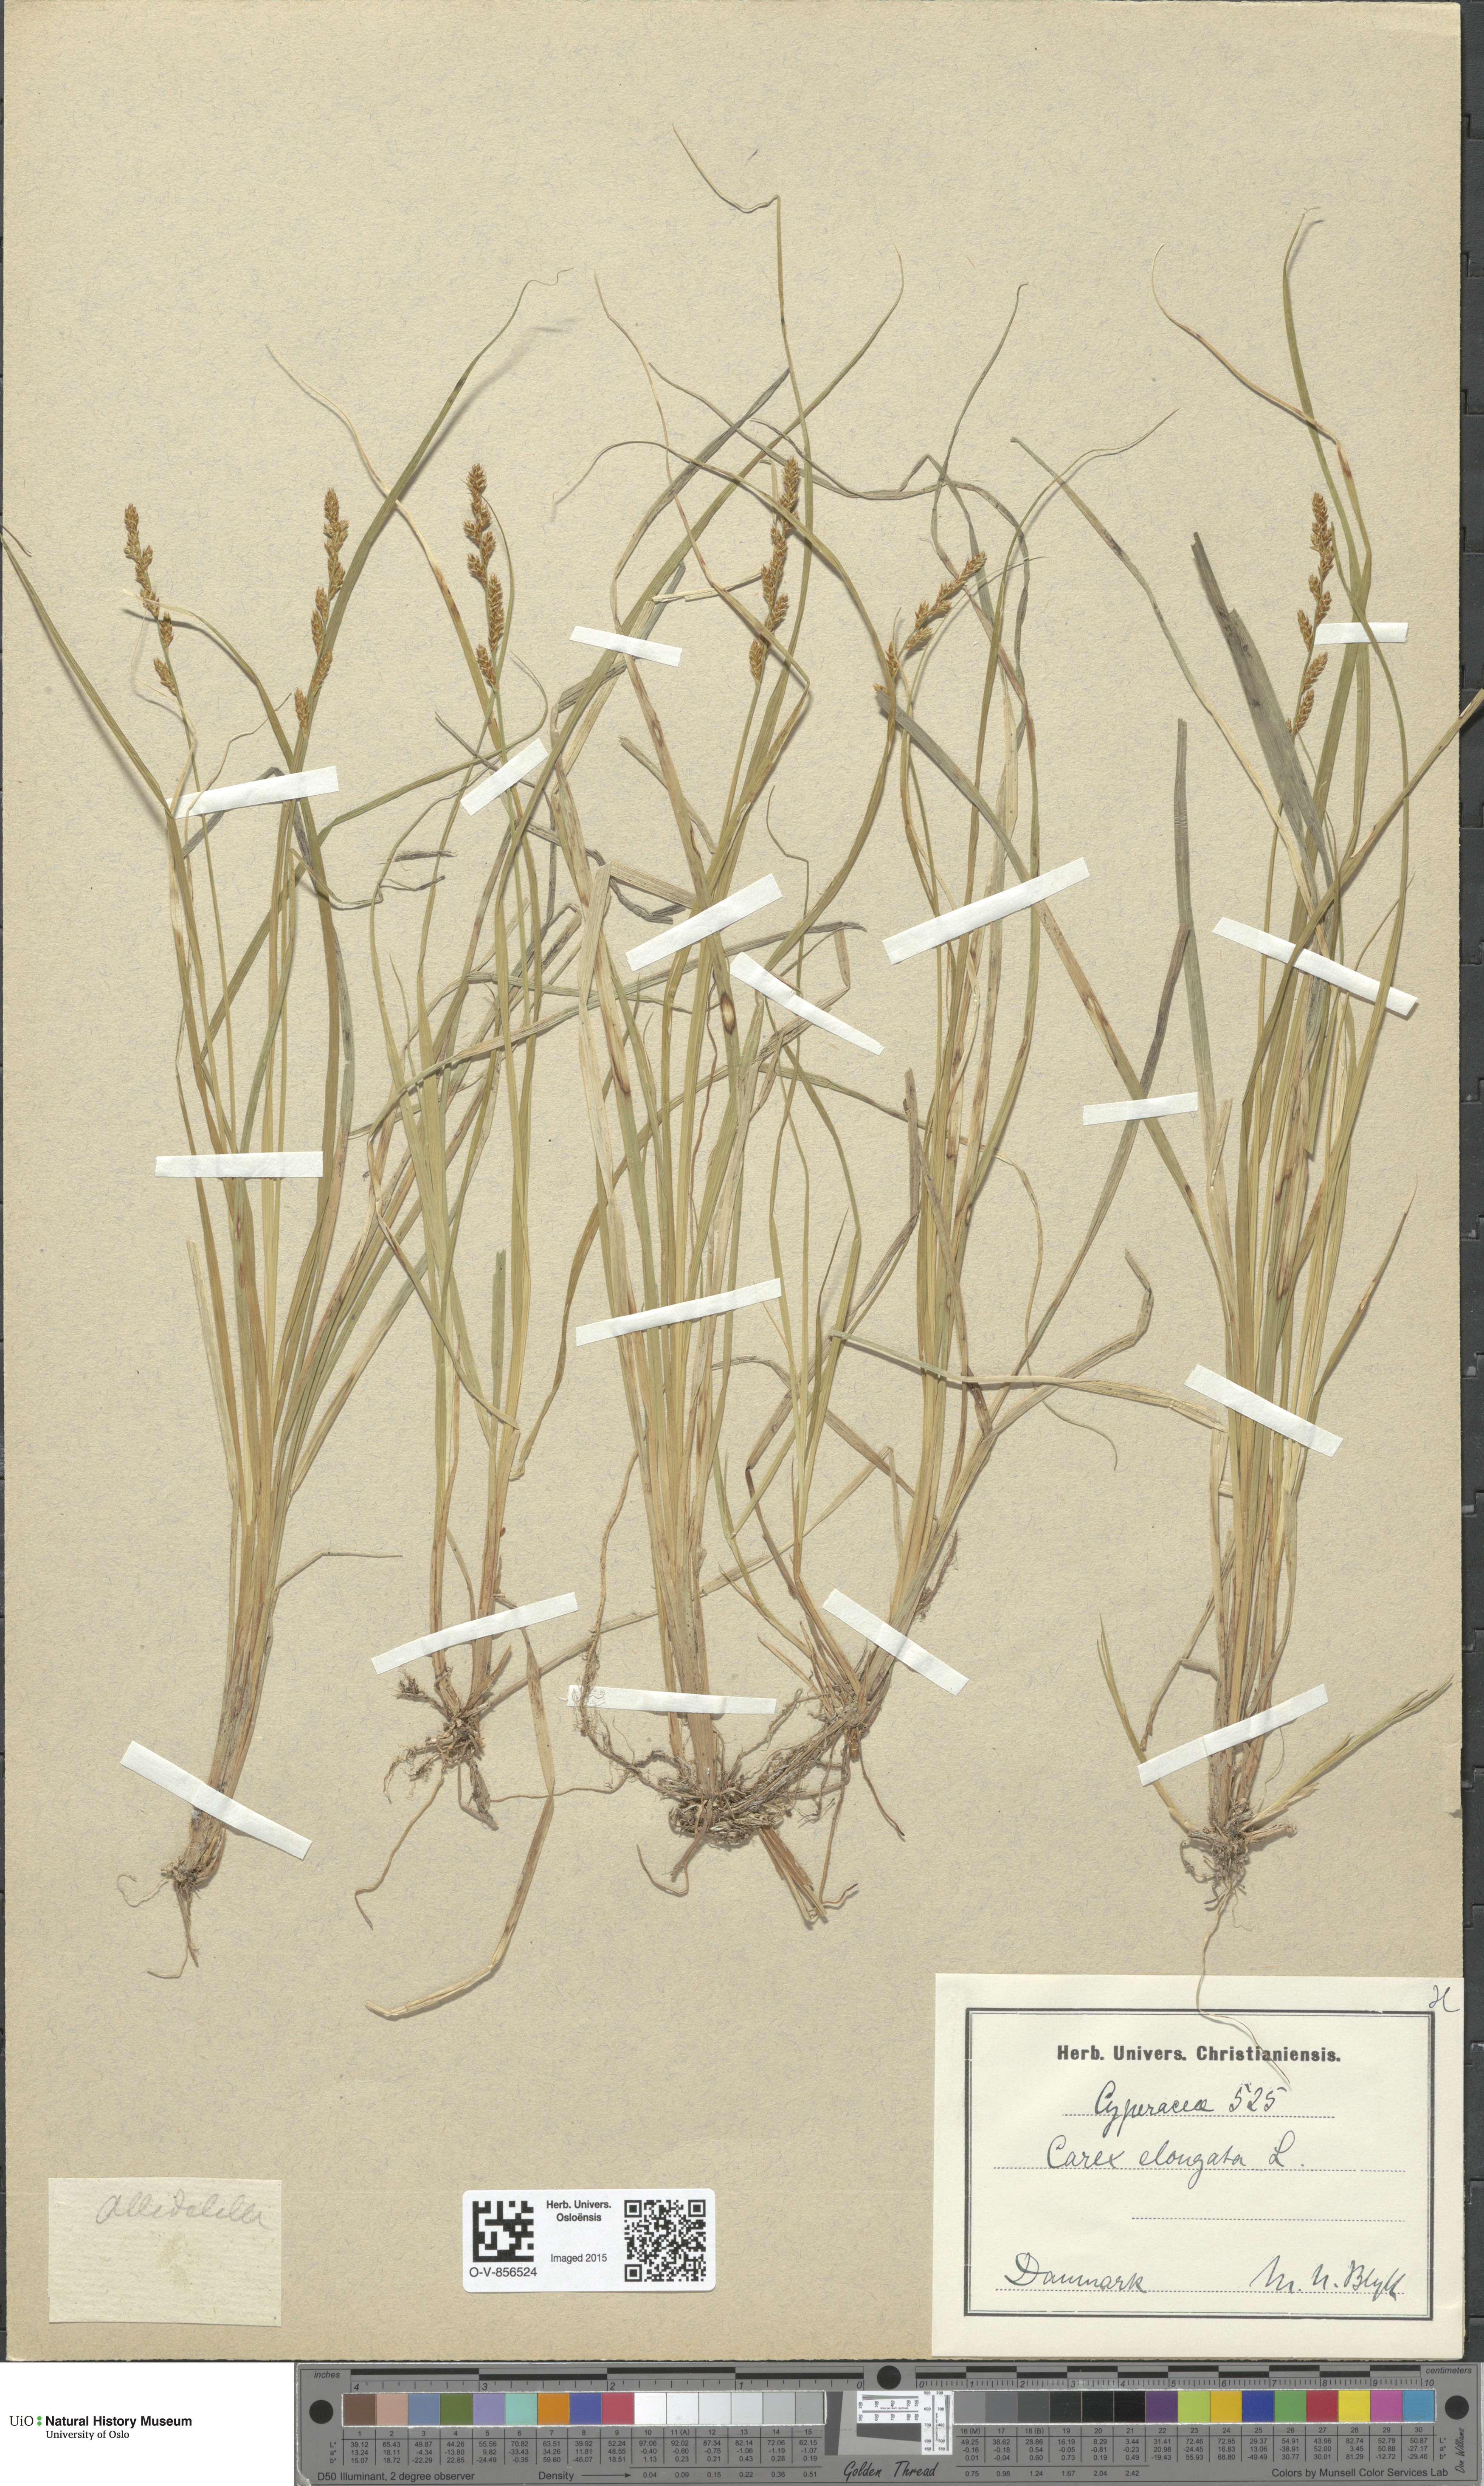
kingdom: Plantae
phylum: Tracheophyta
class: Liliopsida
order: Poales
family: Cyperaceae
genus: Carex
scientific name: Carex elongata
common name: Elongated sedge
